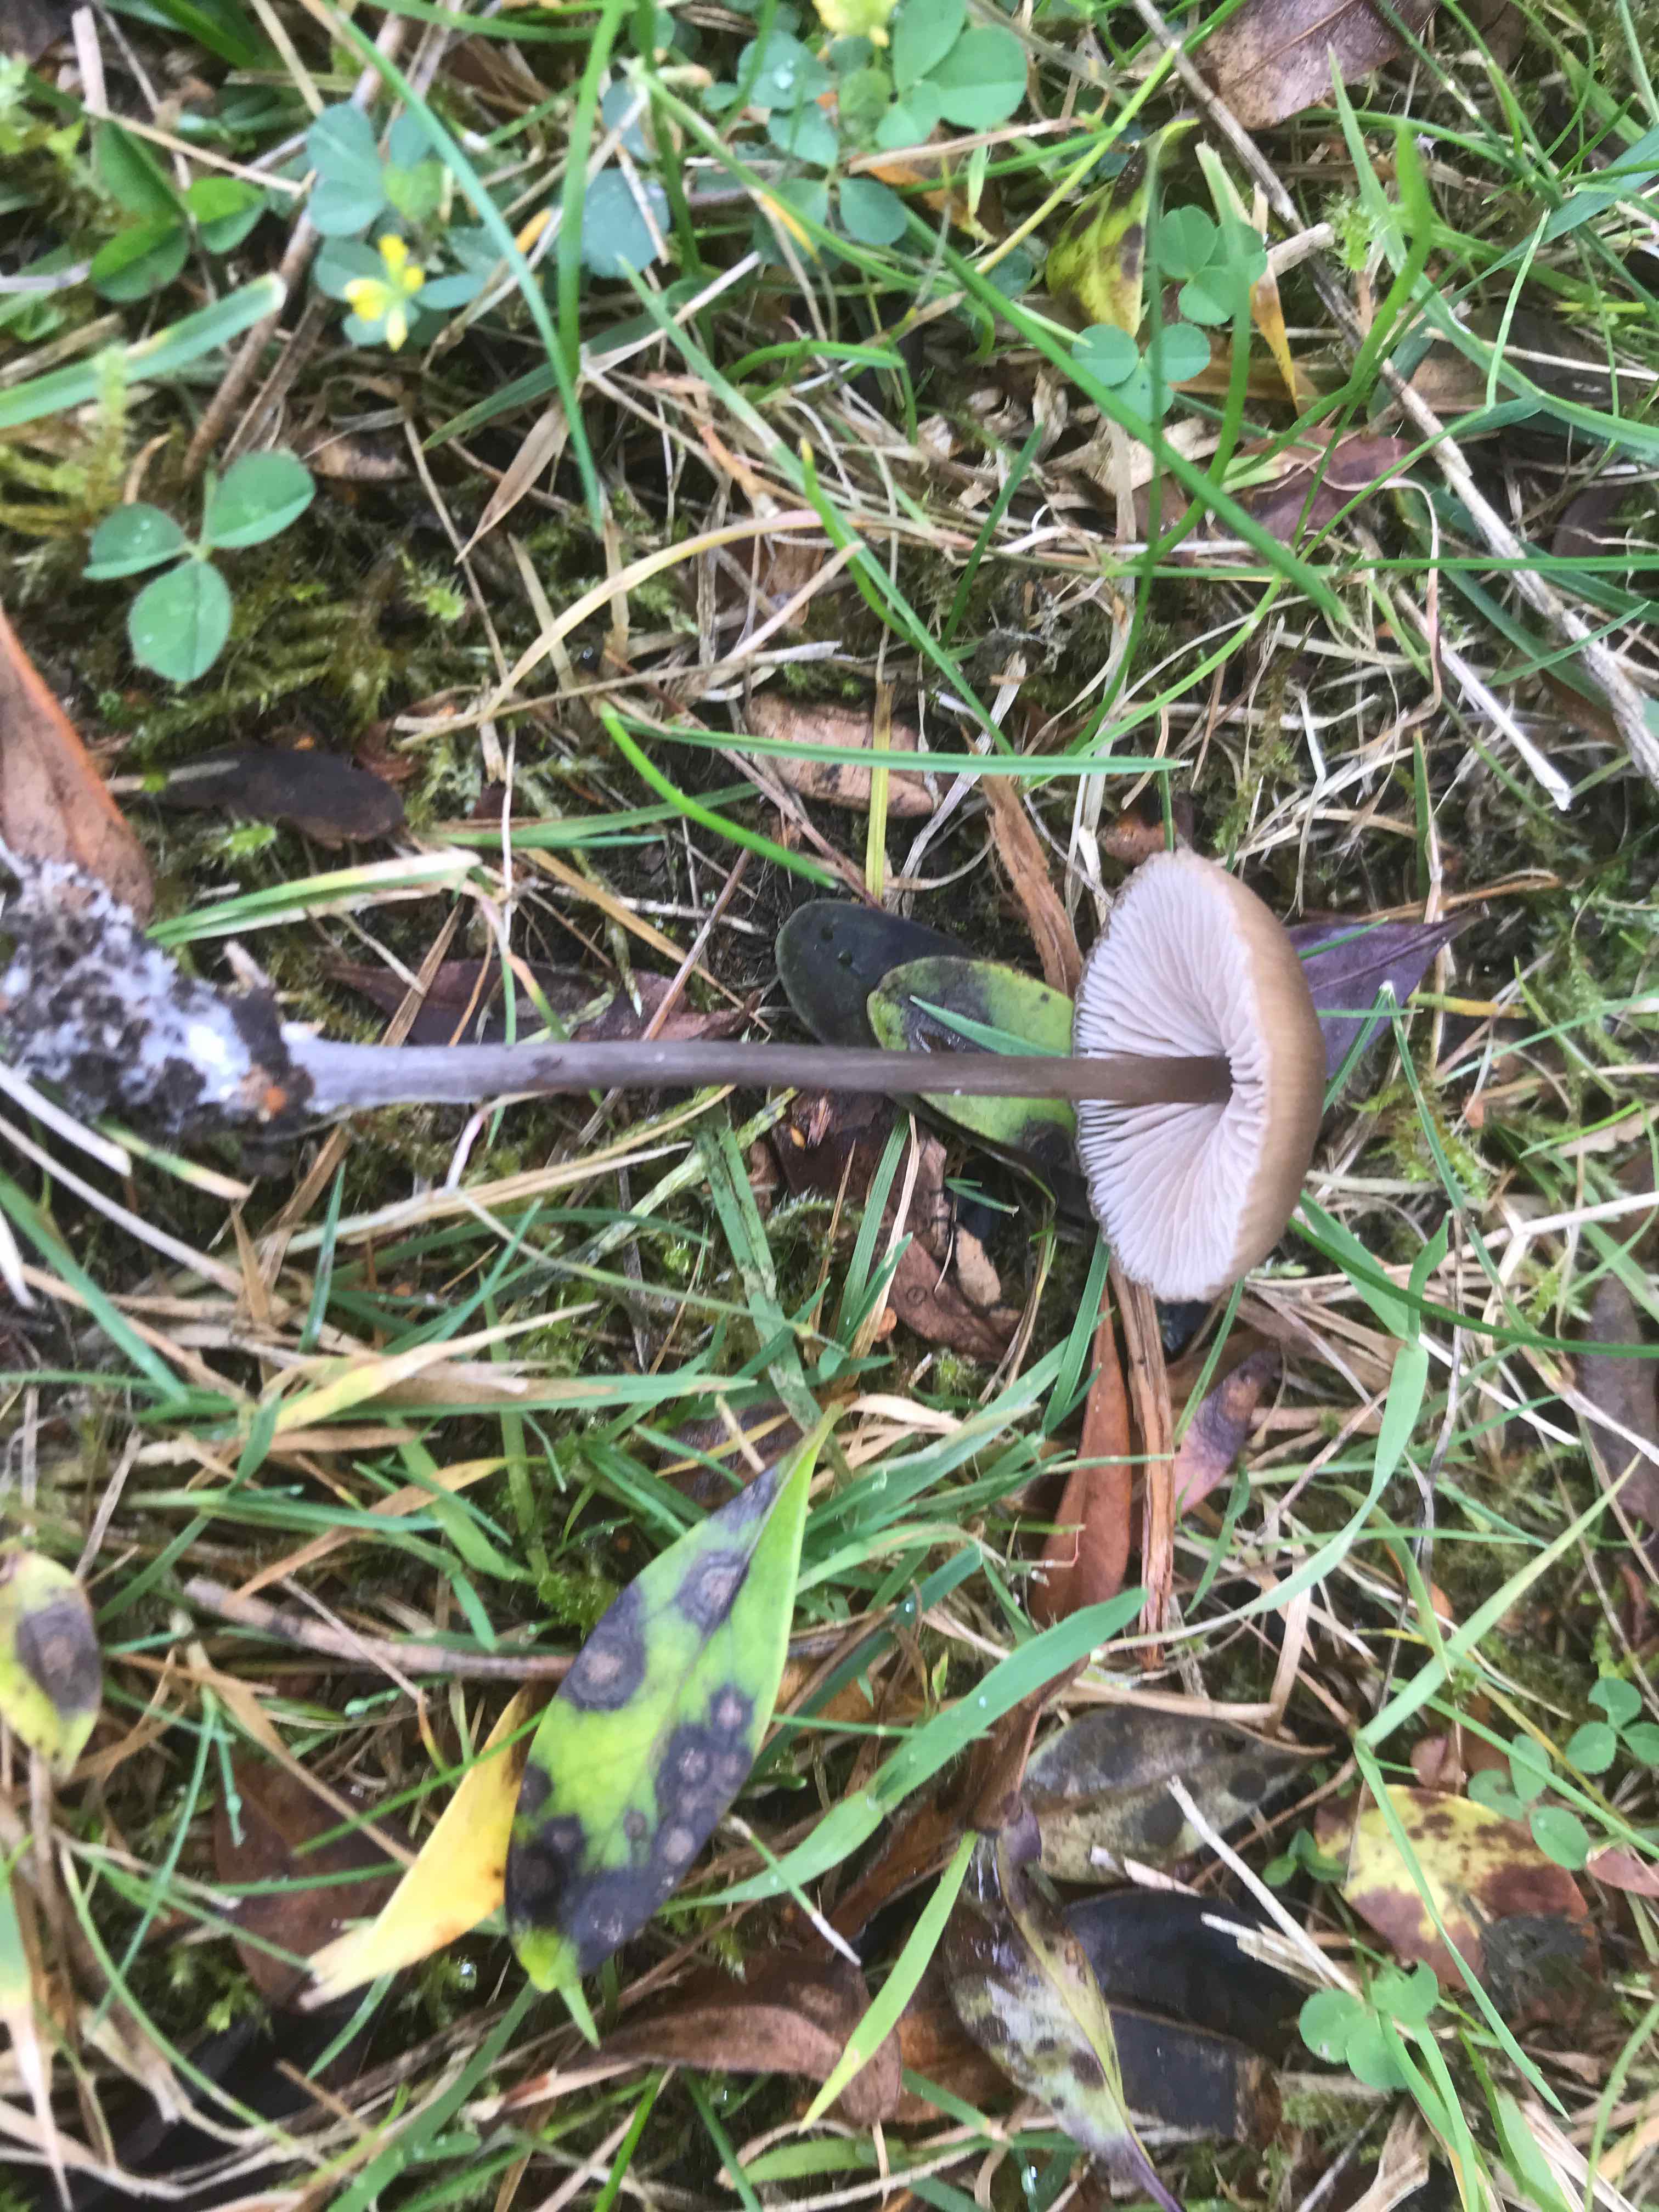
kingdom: Fungi
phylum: Basidiomycota
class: Agaricomycetes
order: Agaricales
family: Entolomataceae
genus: Entoloma
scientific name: Entoloma hebes
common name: krat-rødblad
